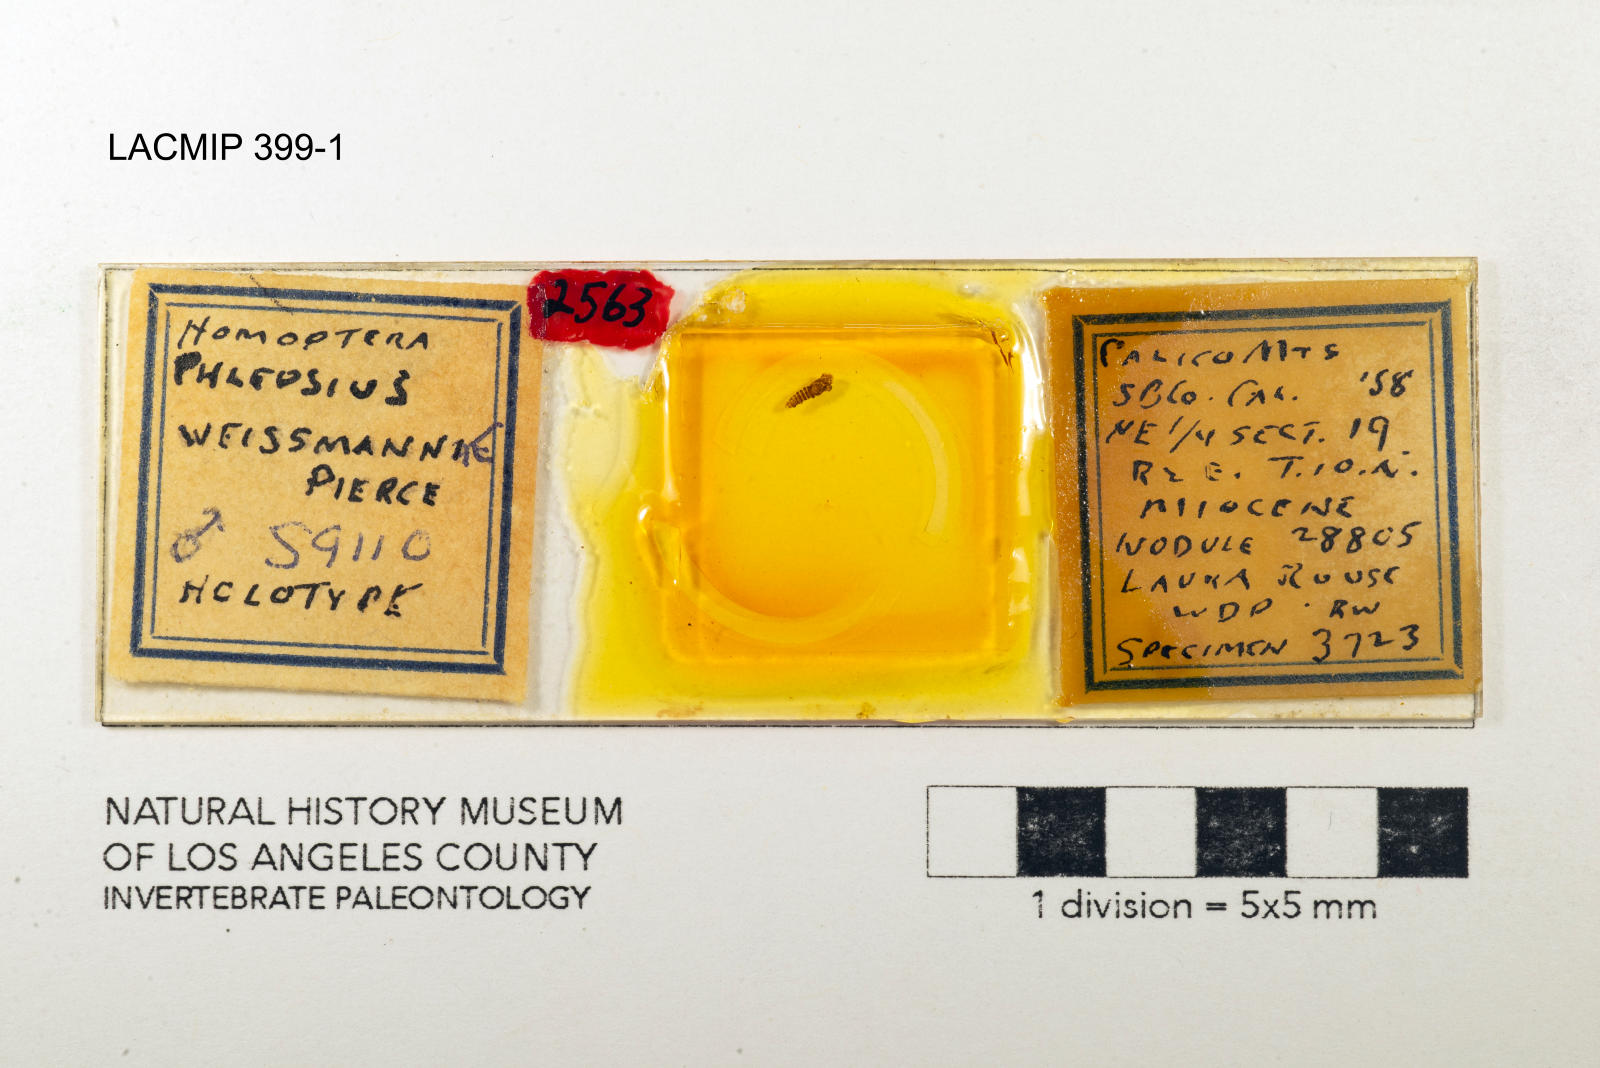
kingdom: Animalia
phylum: Arthropoda
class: Insecta
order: Hemiptera
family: Cicadellidae
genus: Phlepsius
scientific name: Phlepsius weissmanae
